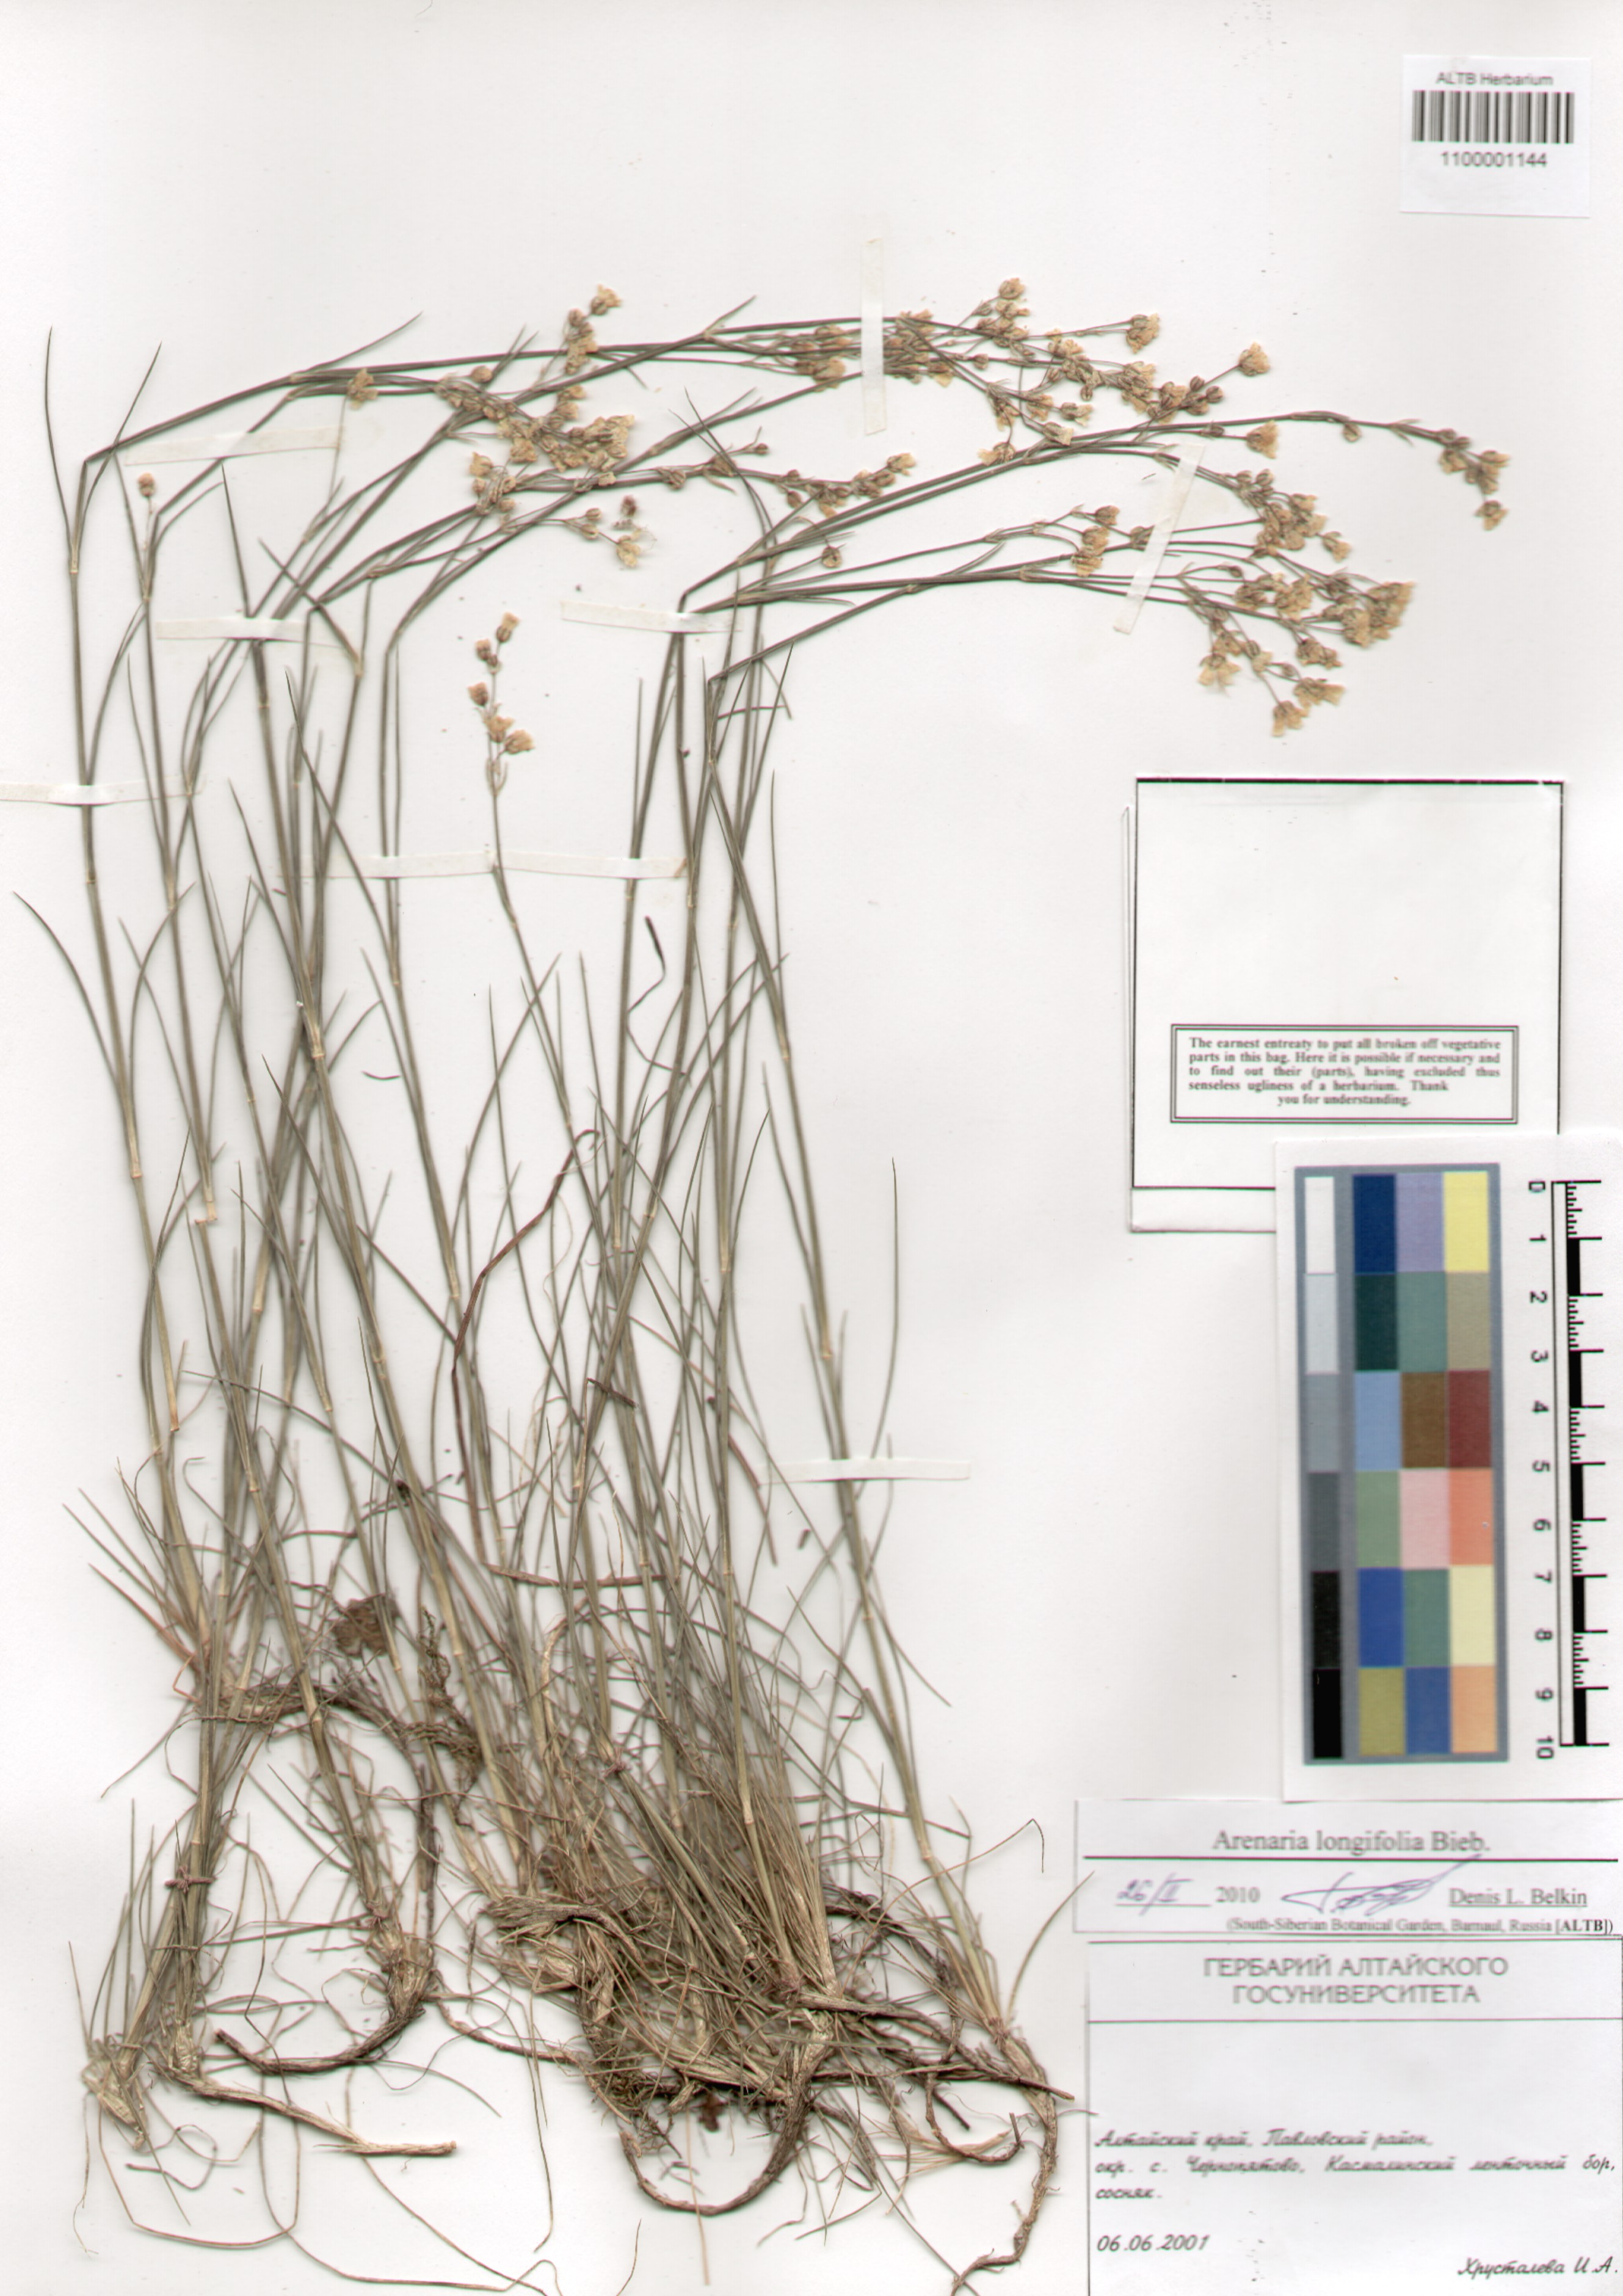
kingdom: Plantae
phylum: Tracheophyta
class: Magnoliopsida
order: Caryophyllales
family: Caryophyllaceae
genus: Eremogone
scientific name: Eremogone longifolia
